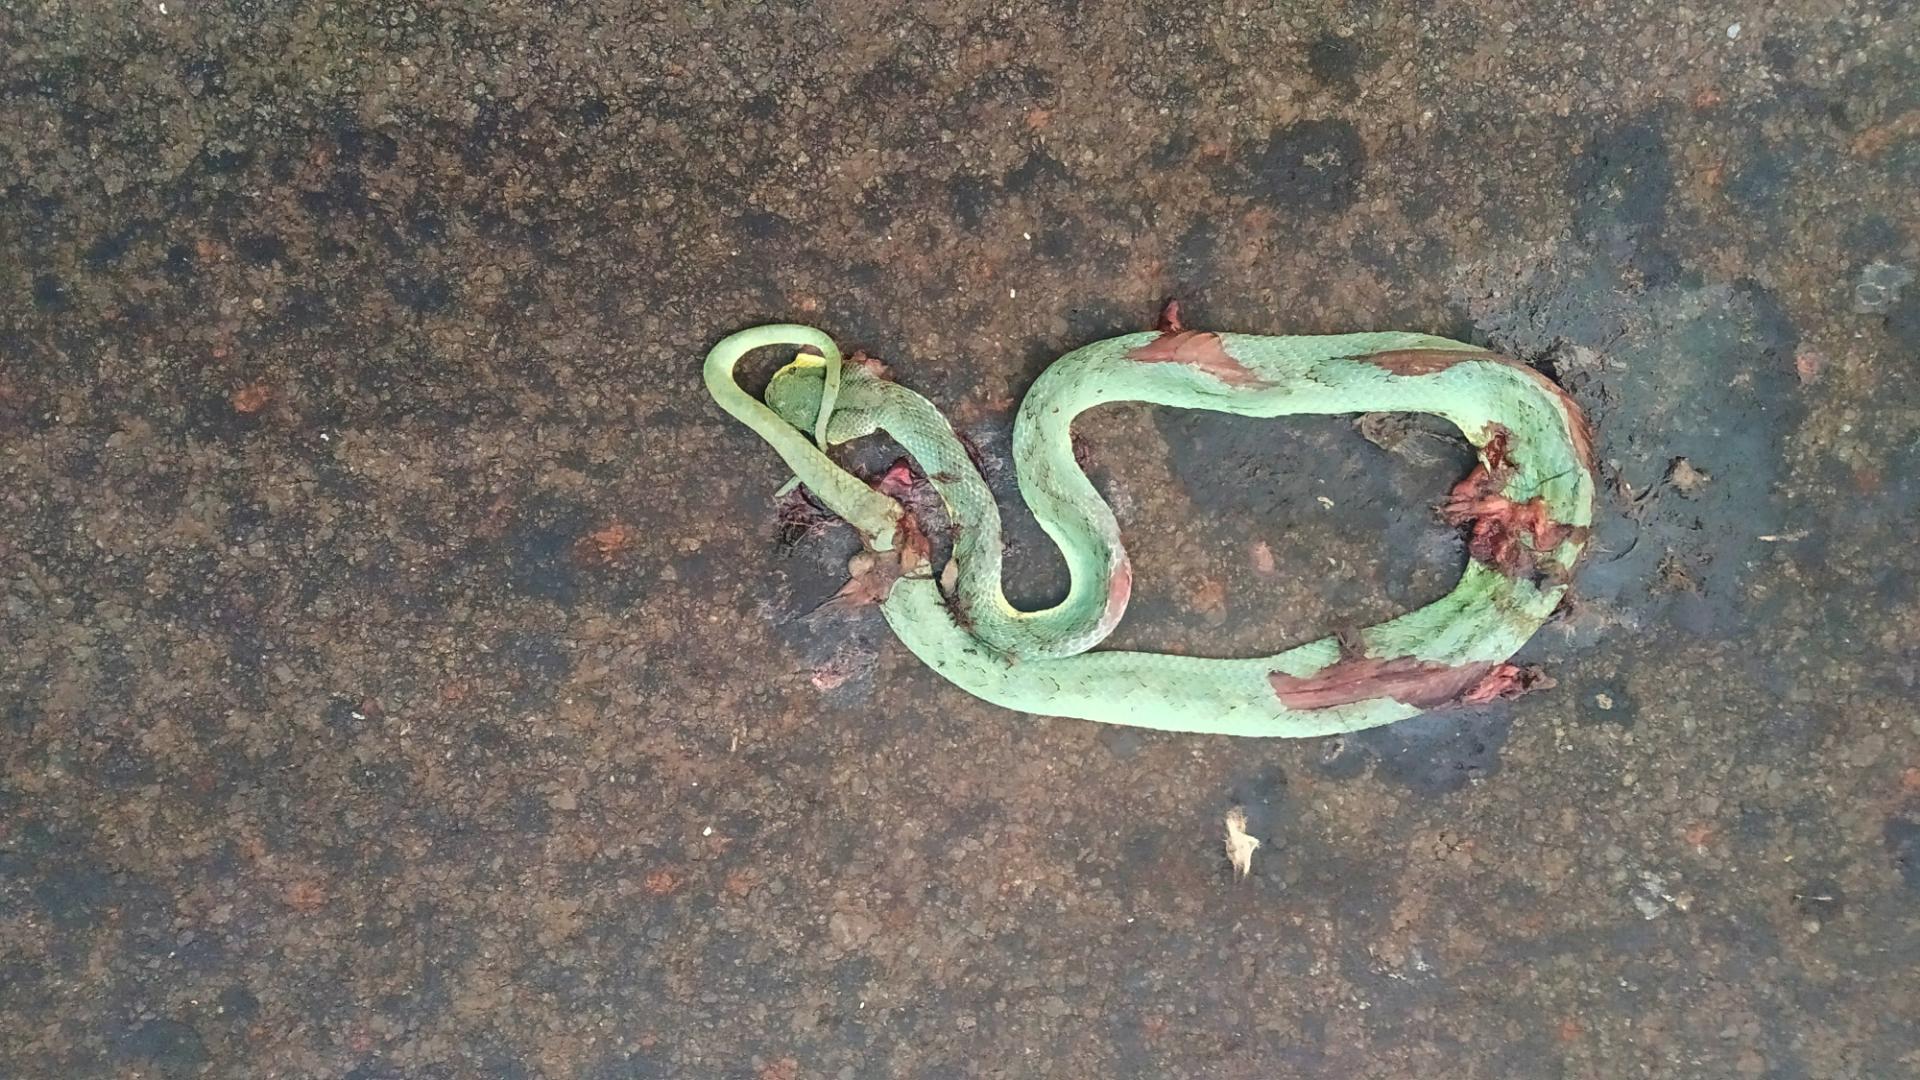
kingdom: Animalia
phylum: Chordata
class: Squamata
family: Viperidae
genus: Craspedocephalus
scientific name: Craspedocephalus gramineus
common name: Common bamboo viper
